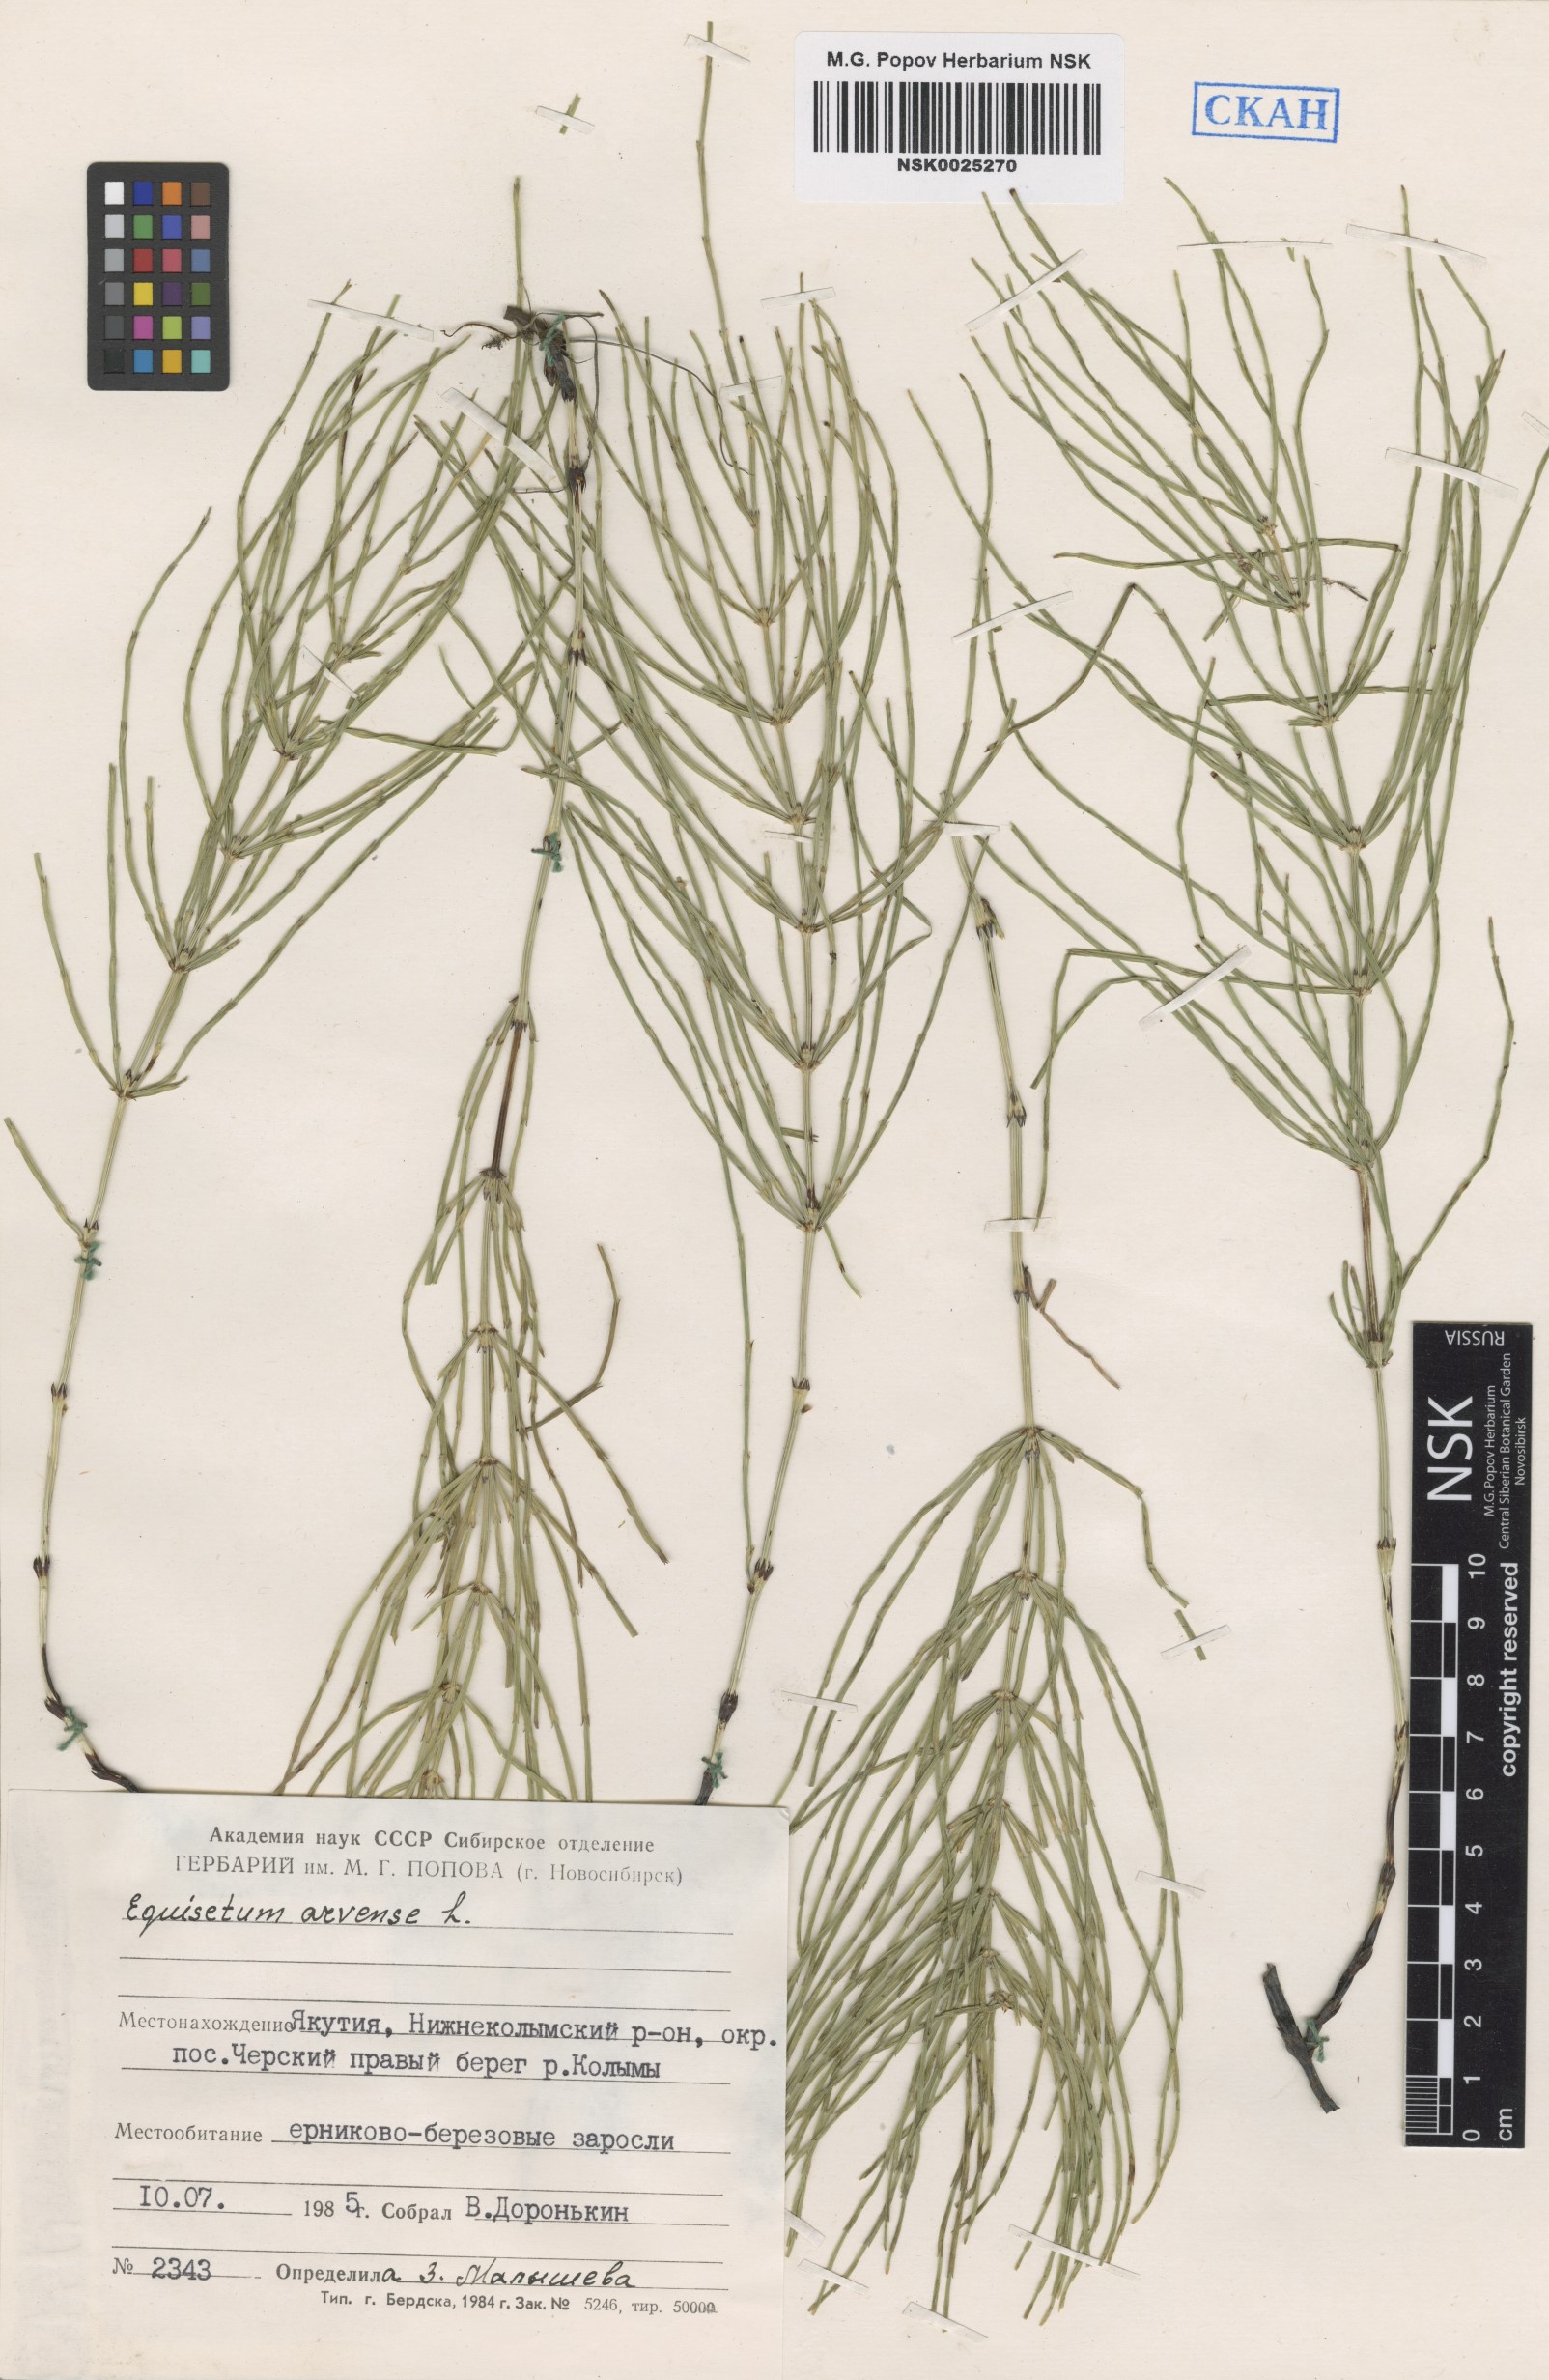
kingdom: Plantae
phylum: Tracheophyta
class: Polypodiopsida
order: Equisetales
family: Equisetaceae
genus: Equisetum
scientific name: Equisetum arvense
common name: Field horsetail
